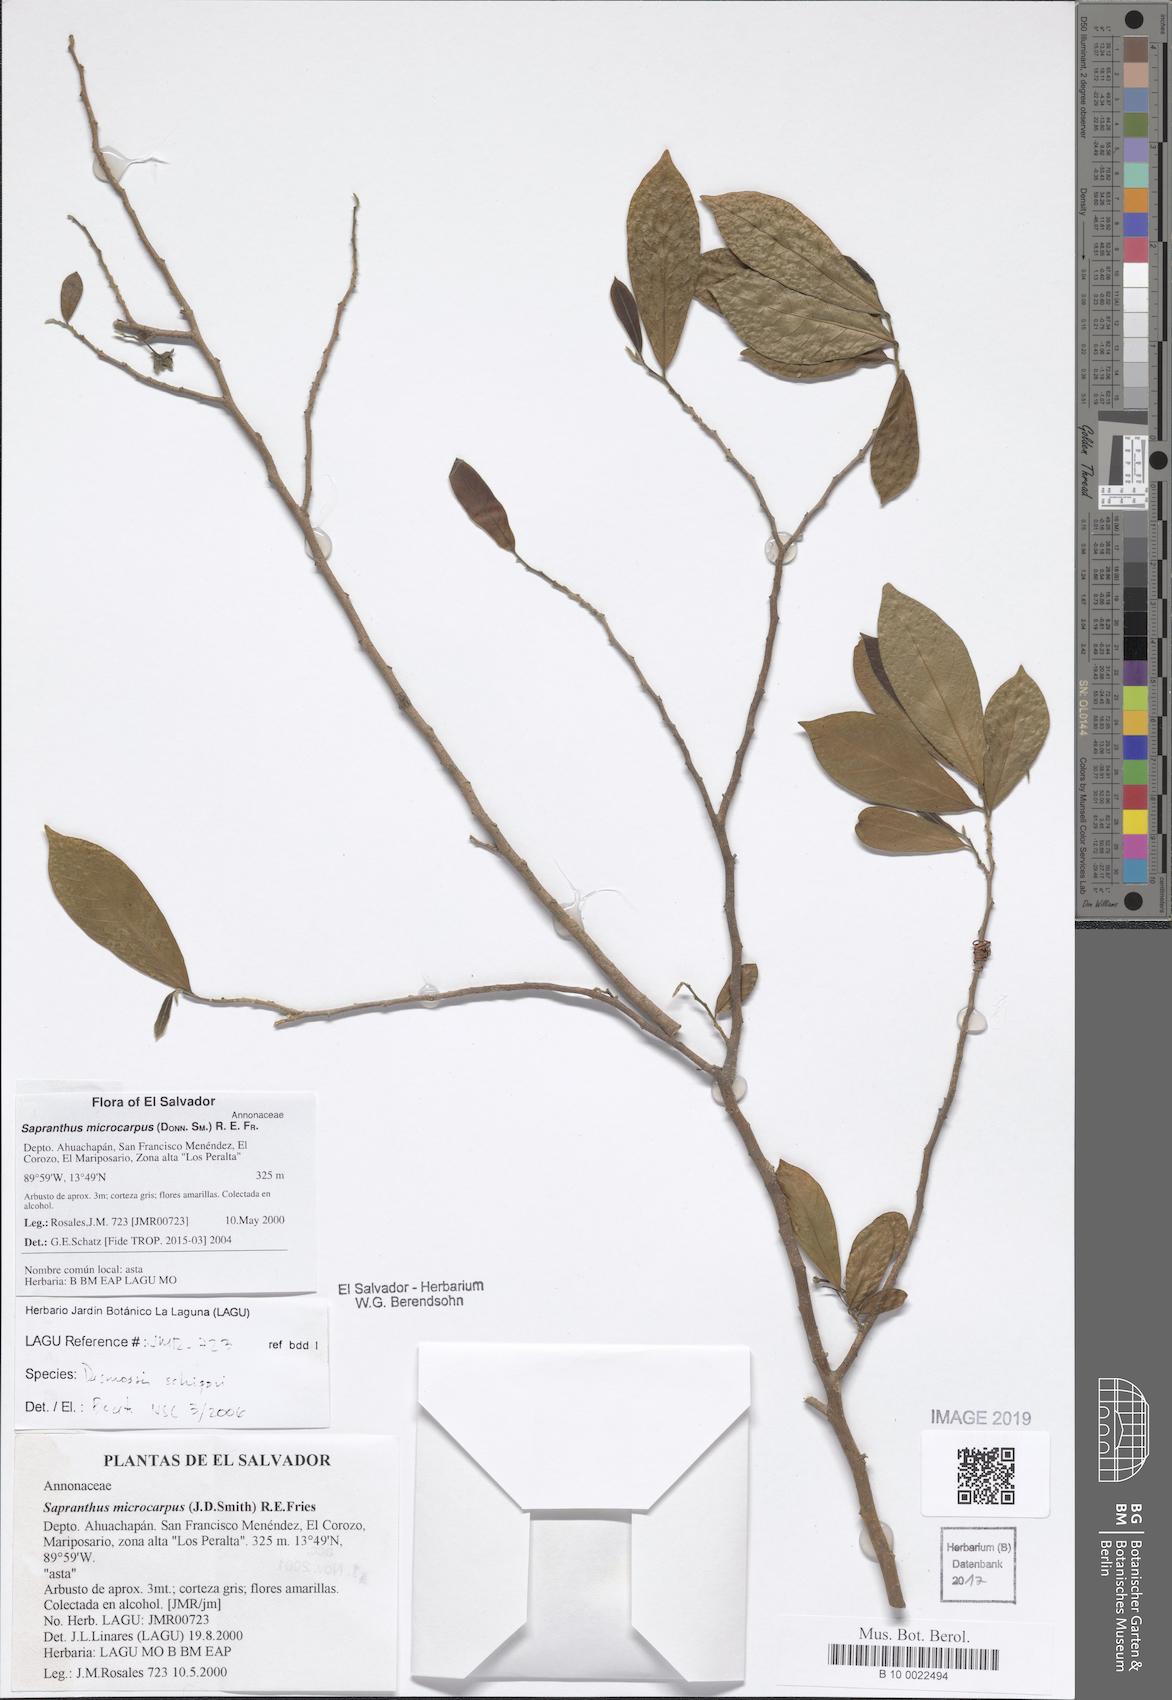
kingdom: Plantae
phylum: Tracheophyta
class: Magnoliopsida
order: Magnoliales
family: Annonaceae
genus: Sapranthus
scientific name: Sapranthus microcarpus
